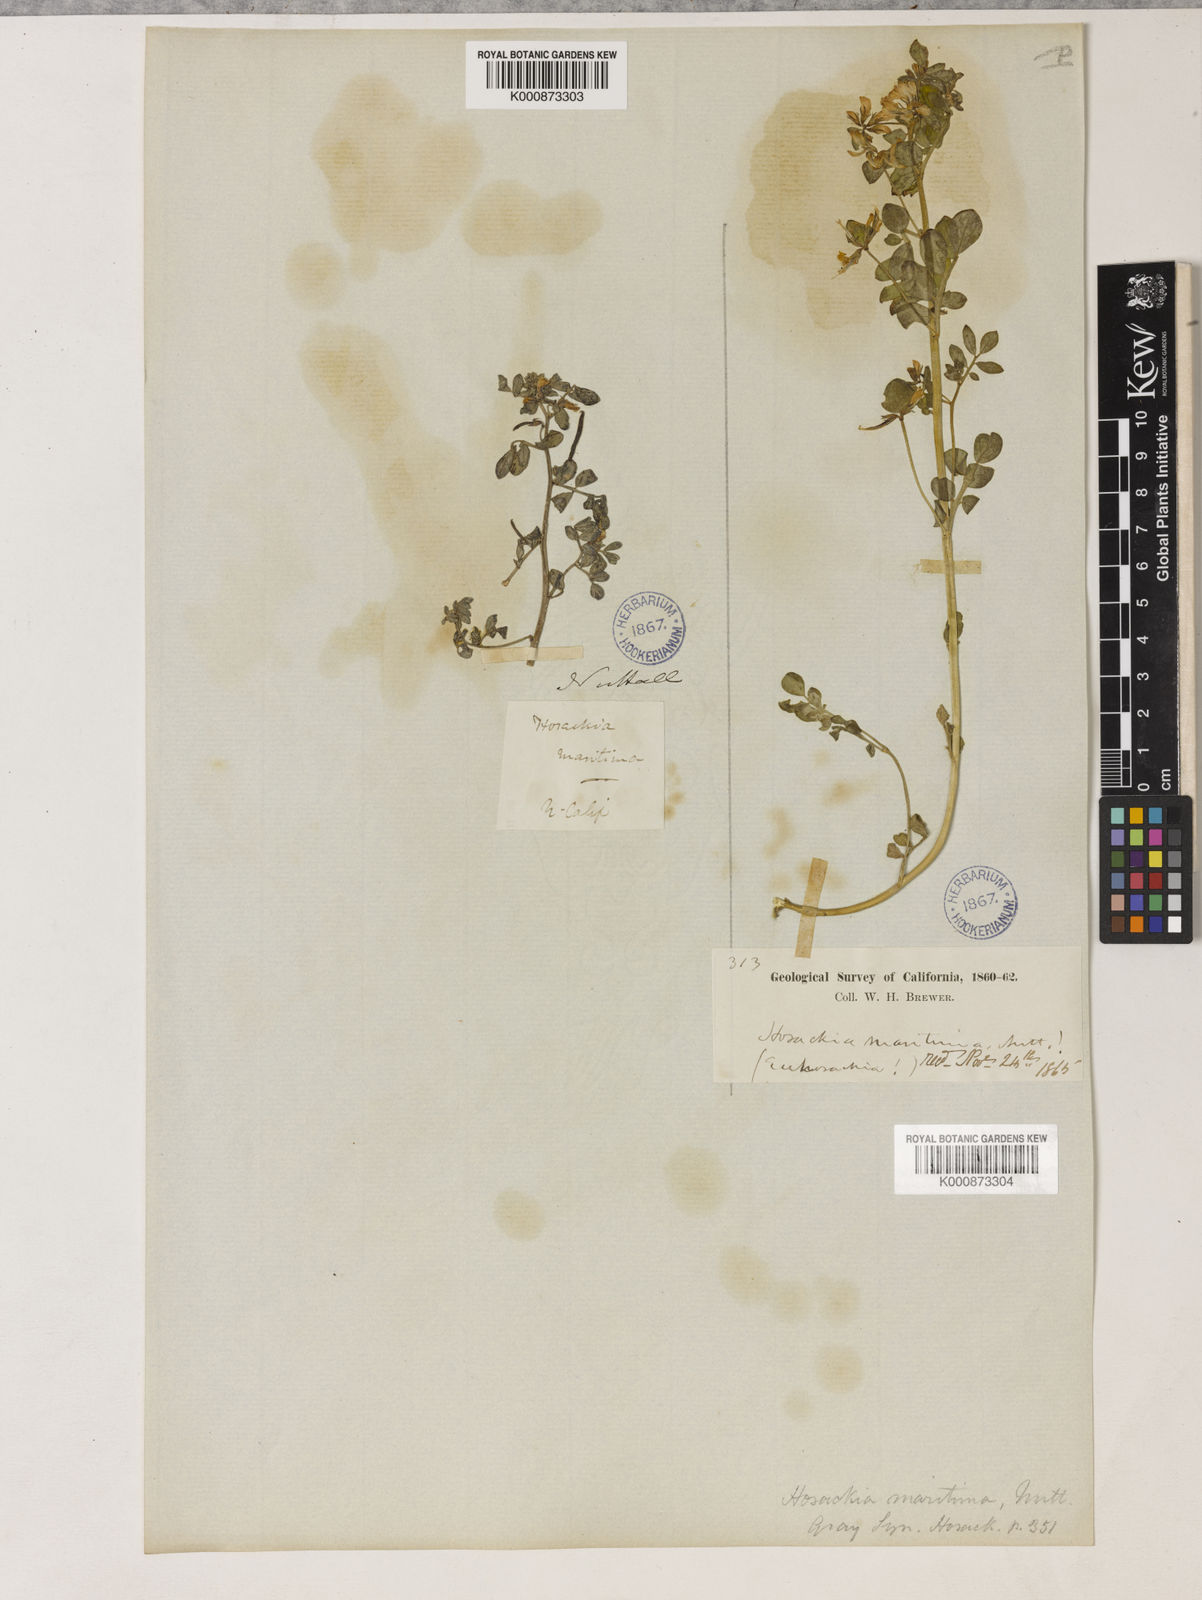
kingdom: Plantae
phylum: Tracheophyta
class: Magnoliopsida
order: Fabales
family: Fabaceae
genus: Acmispon
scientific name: Acmispon maritimus
